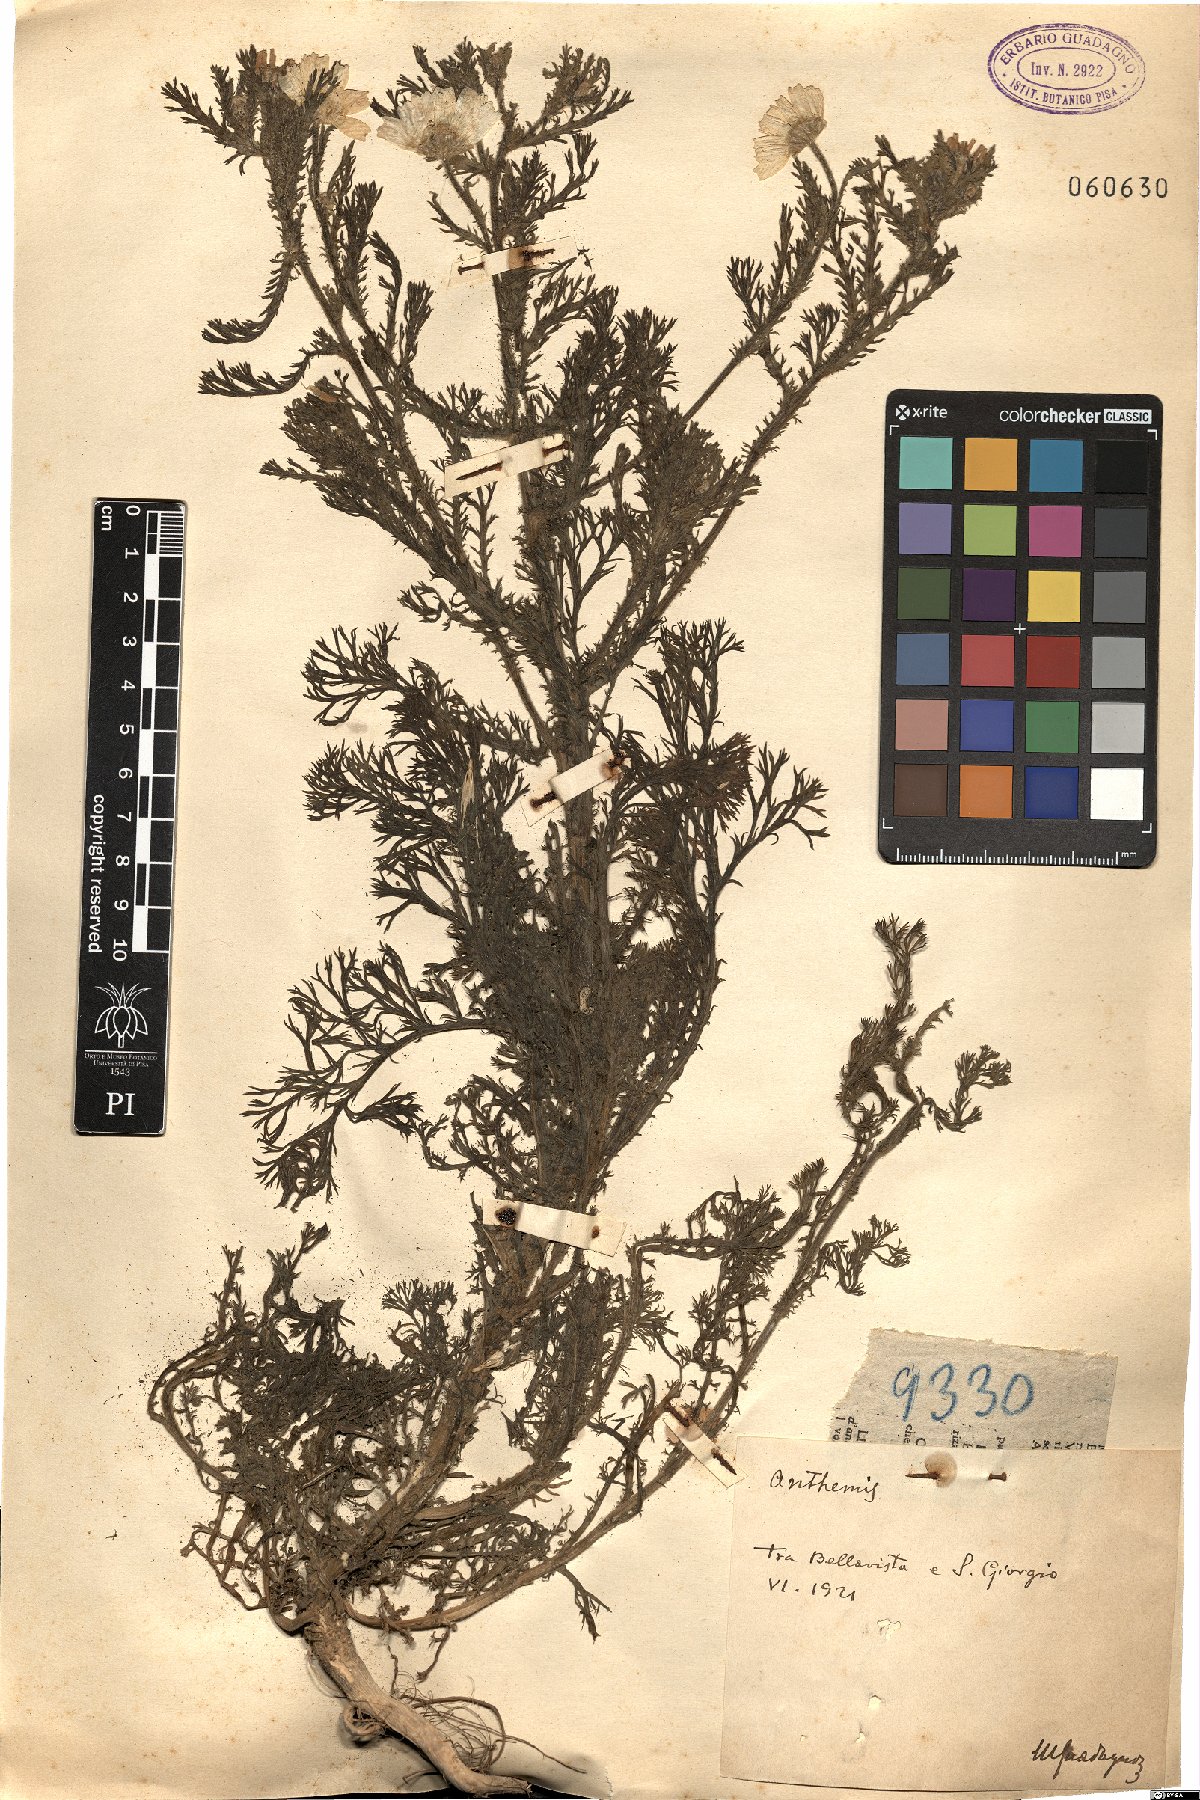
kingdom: Plantae
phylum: Tracheophyta
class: Magnoliopsida
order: Asterales
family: Asteraceae
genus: Anthemis
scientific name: Anthemis
